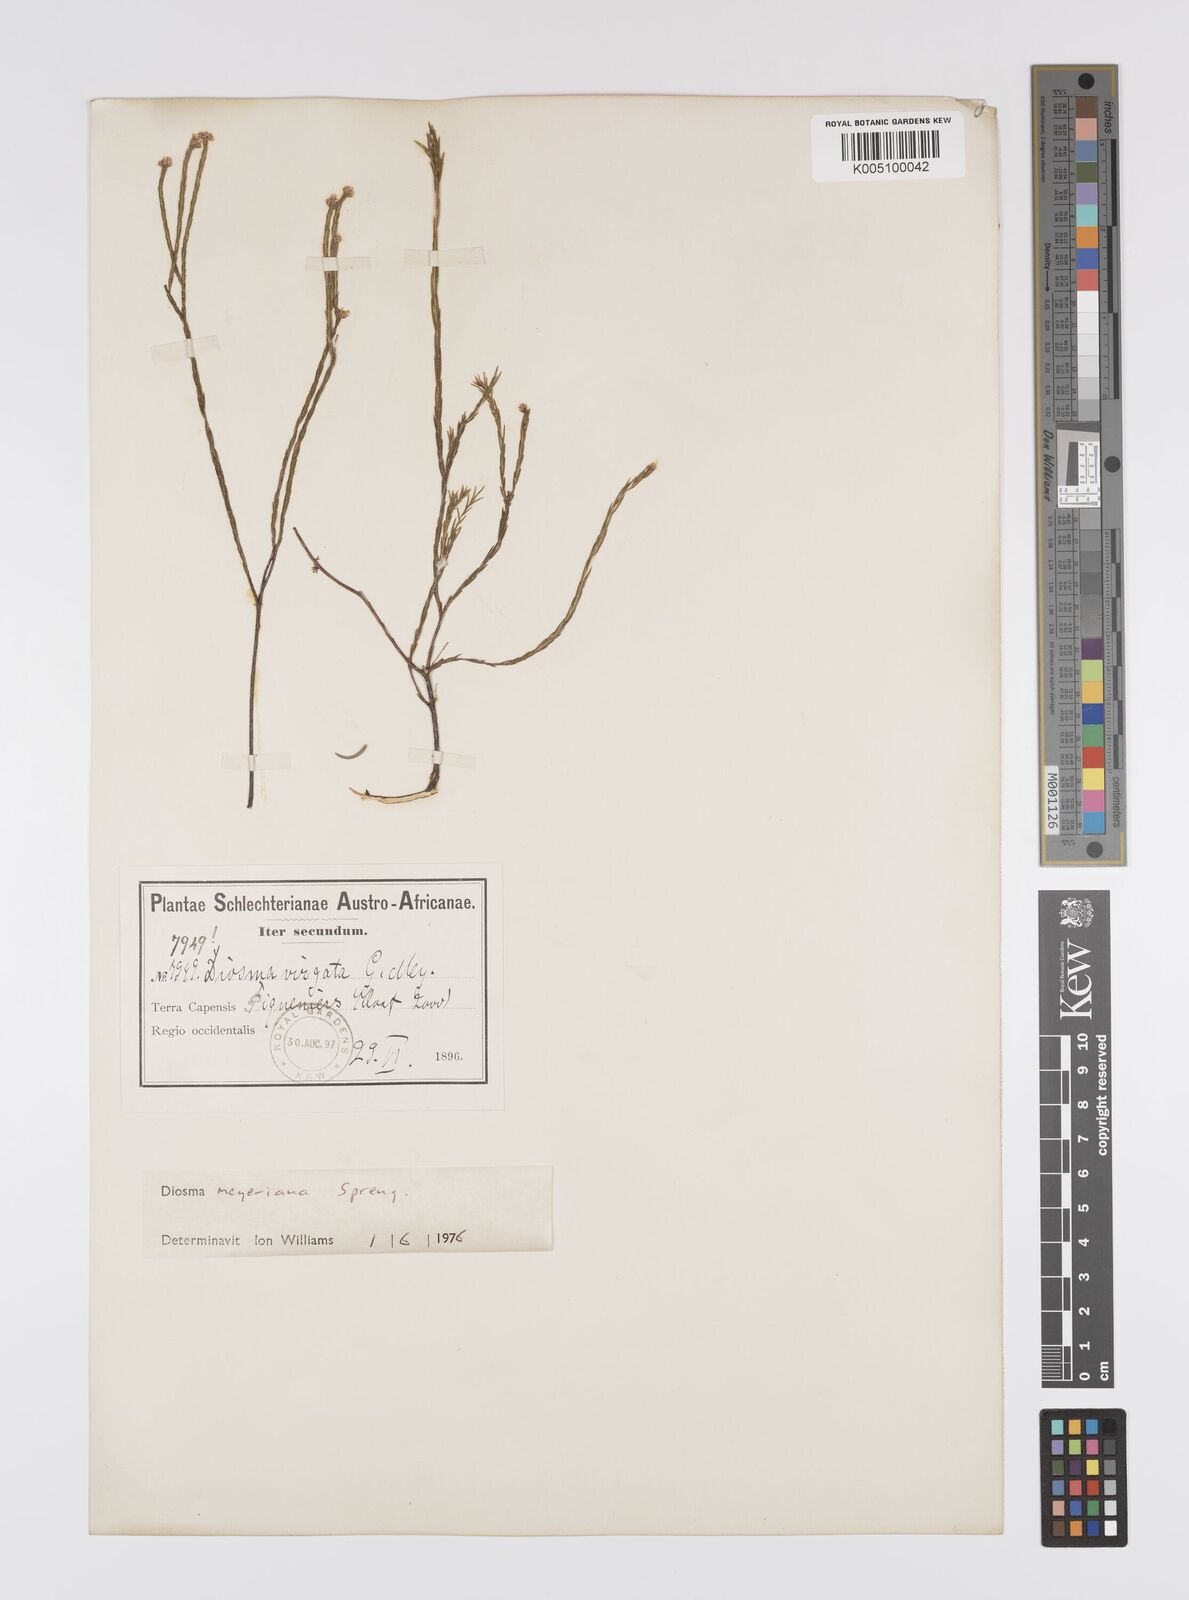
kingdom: Plantae
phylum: Tracheophyta
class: Magnoliopsida
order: Sapindales
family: Rutaceae
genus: Agathosma
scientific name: Agathosma virgata
